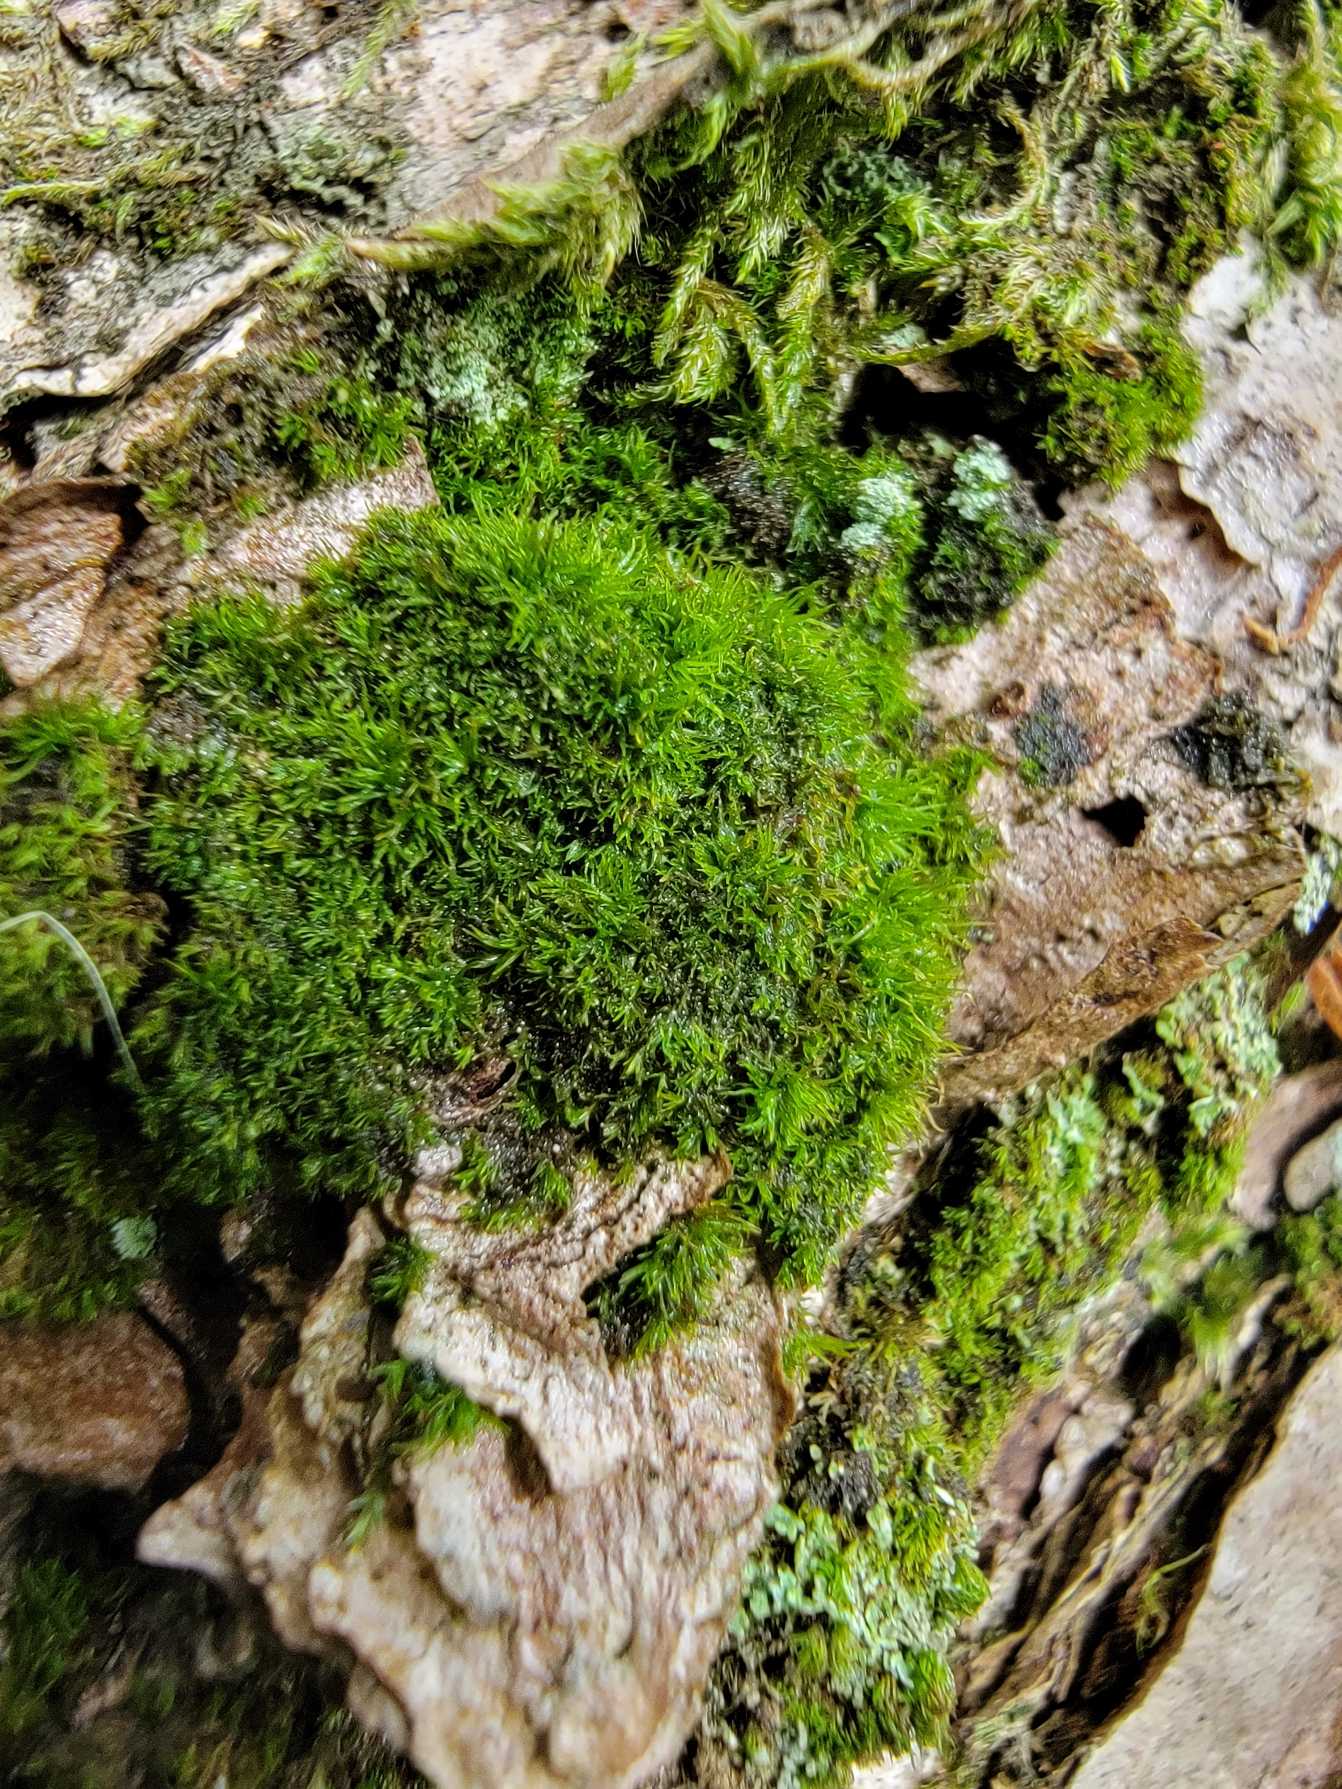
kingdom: Plantae
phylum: Bryophyta
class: Bryopsida
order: Dicranales
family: Dicranaceae
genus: Orthodicranum
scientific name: Orthodicranum montanum
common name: Tæt tyndvinge
